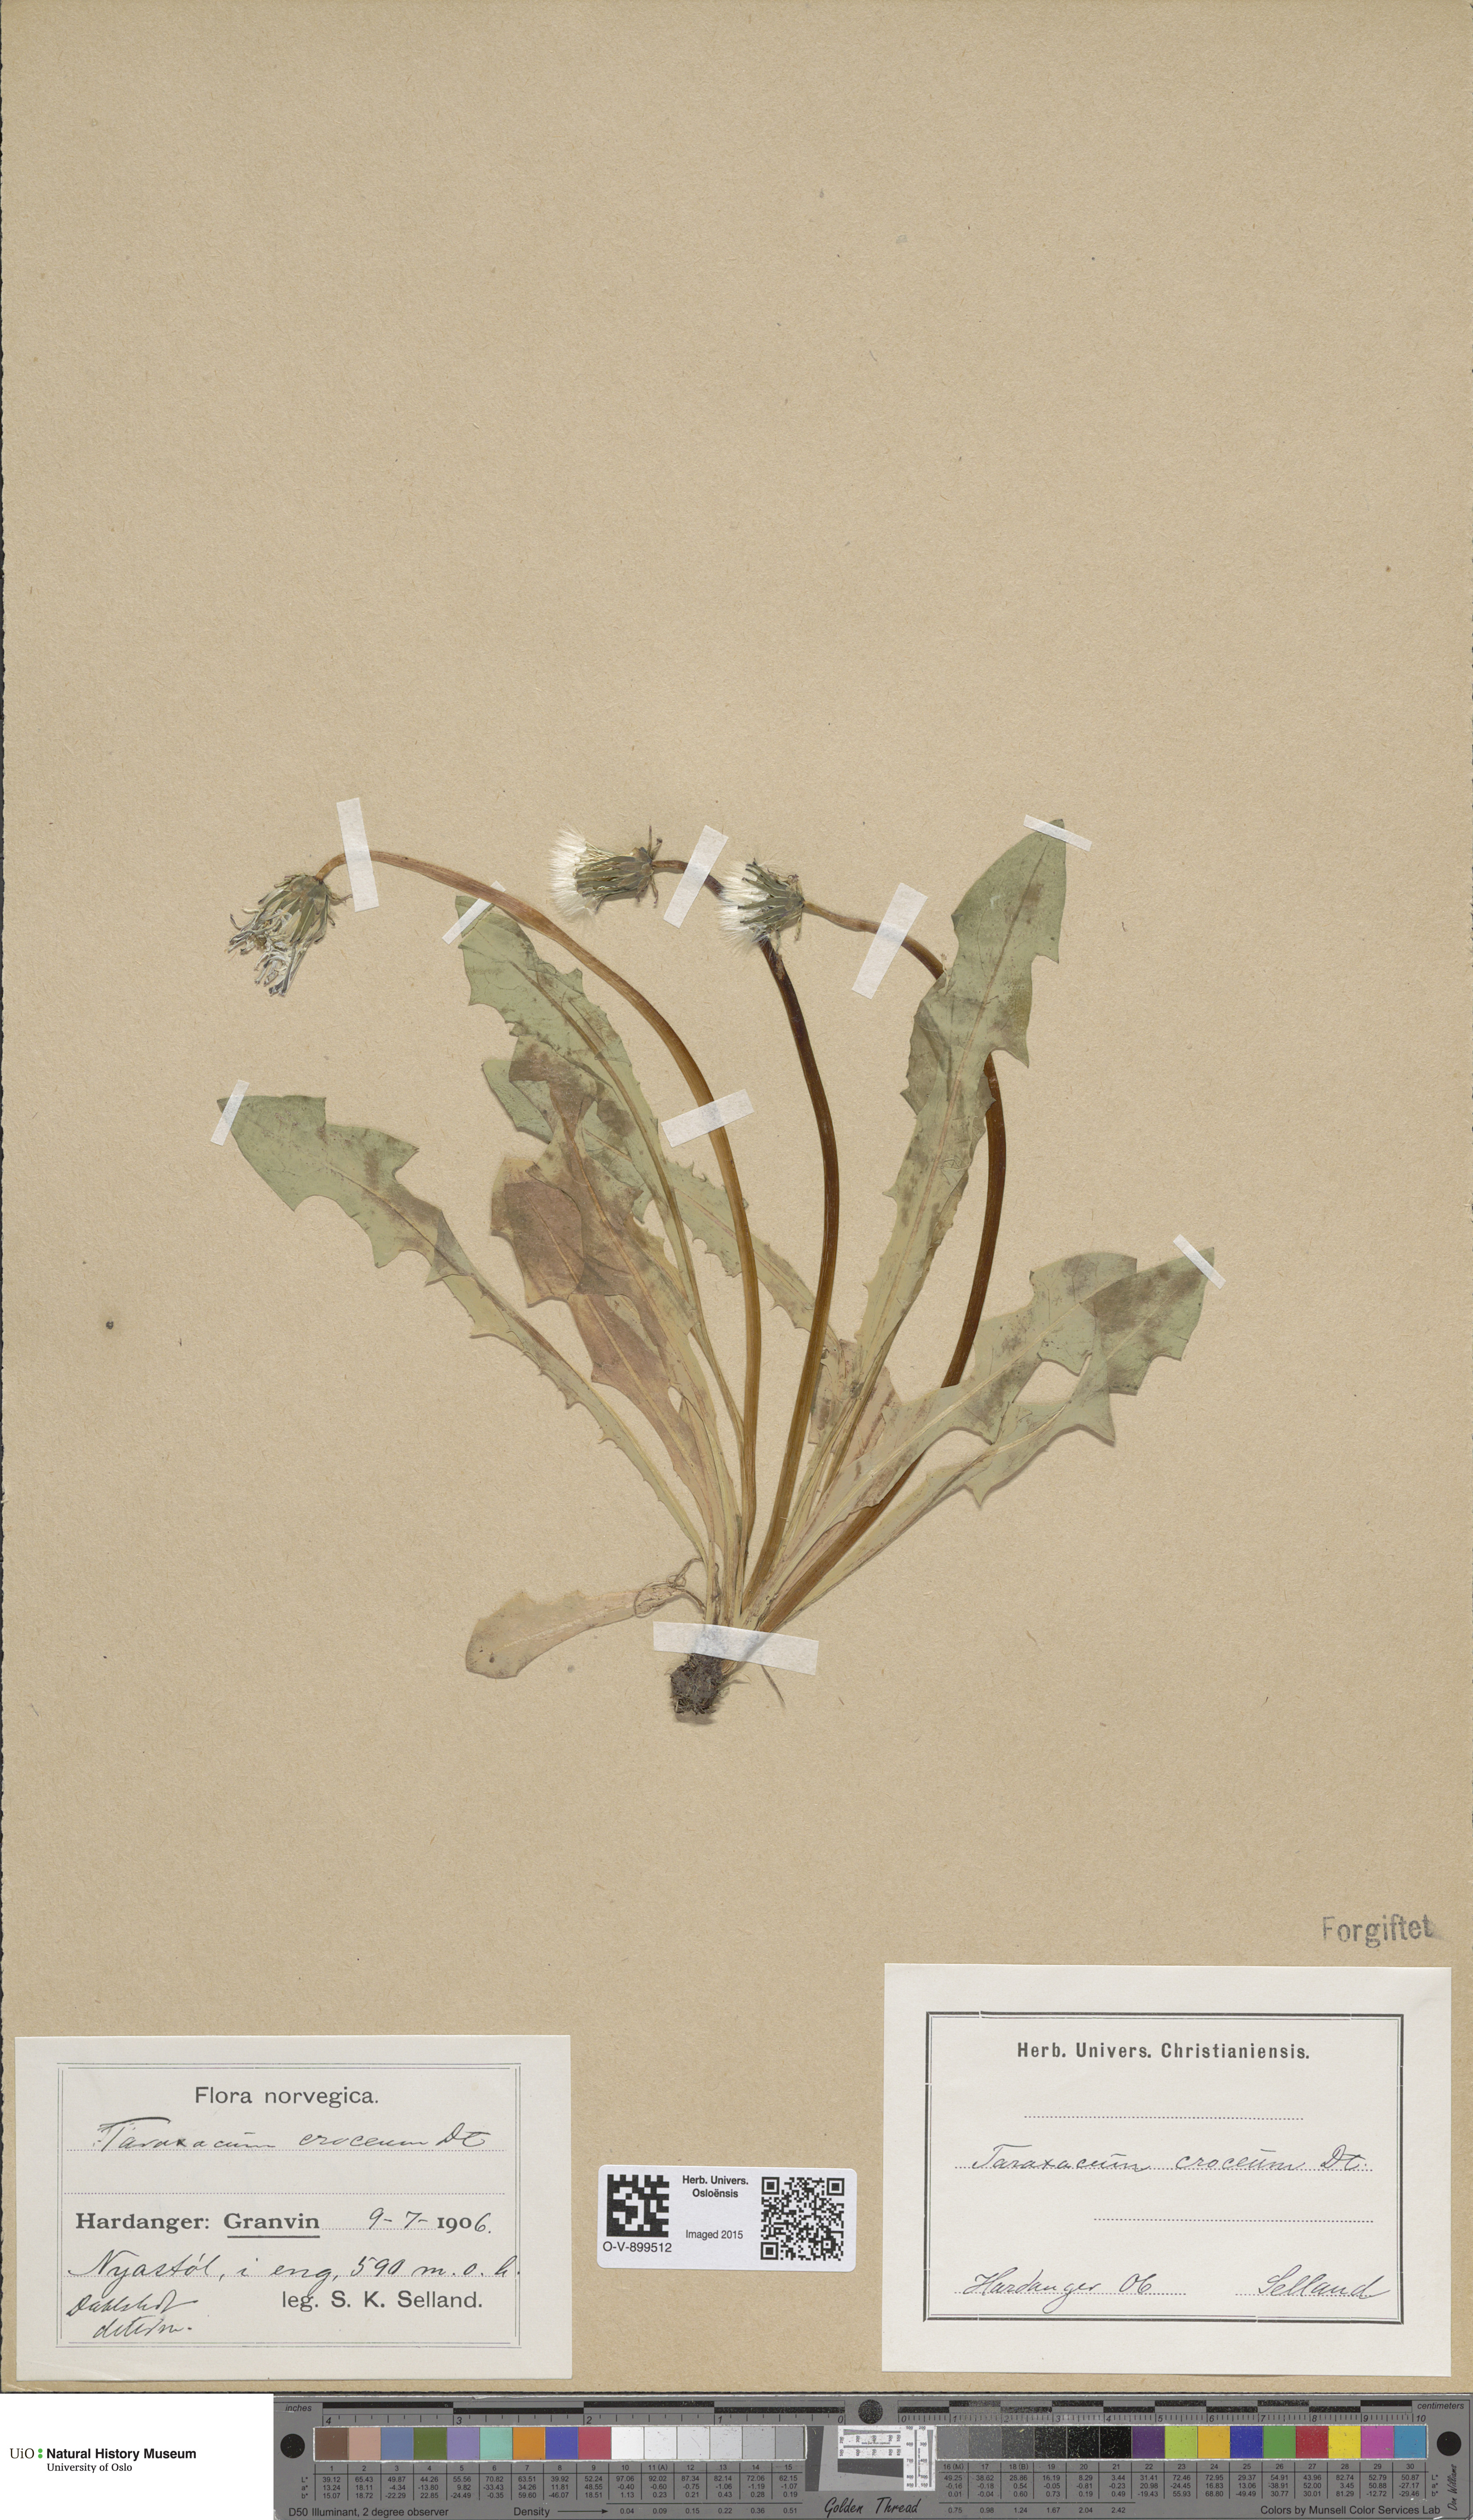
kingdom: Plantae
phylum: Tracheophyta
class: Magnoliopsida
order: Asterales
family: Asteraceae
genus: Taraxacum
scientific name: Taraxacum croceum
